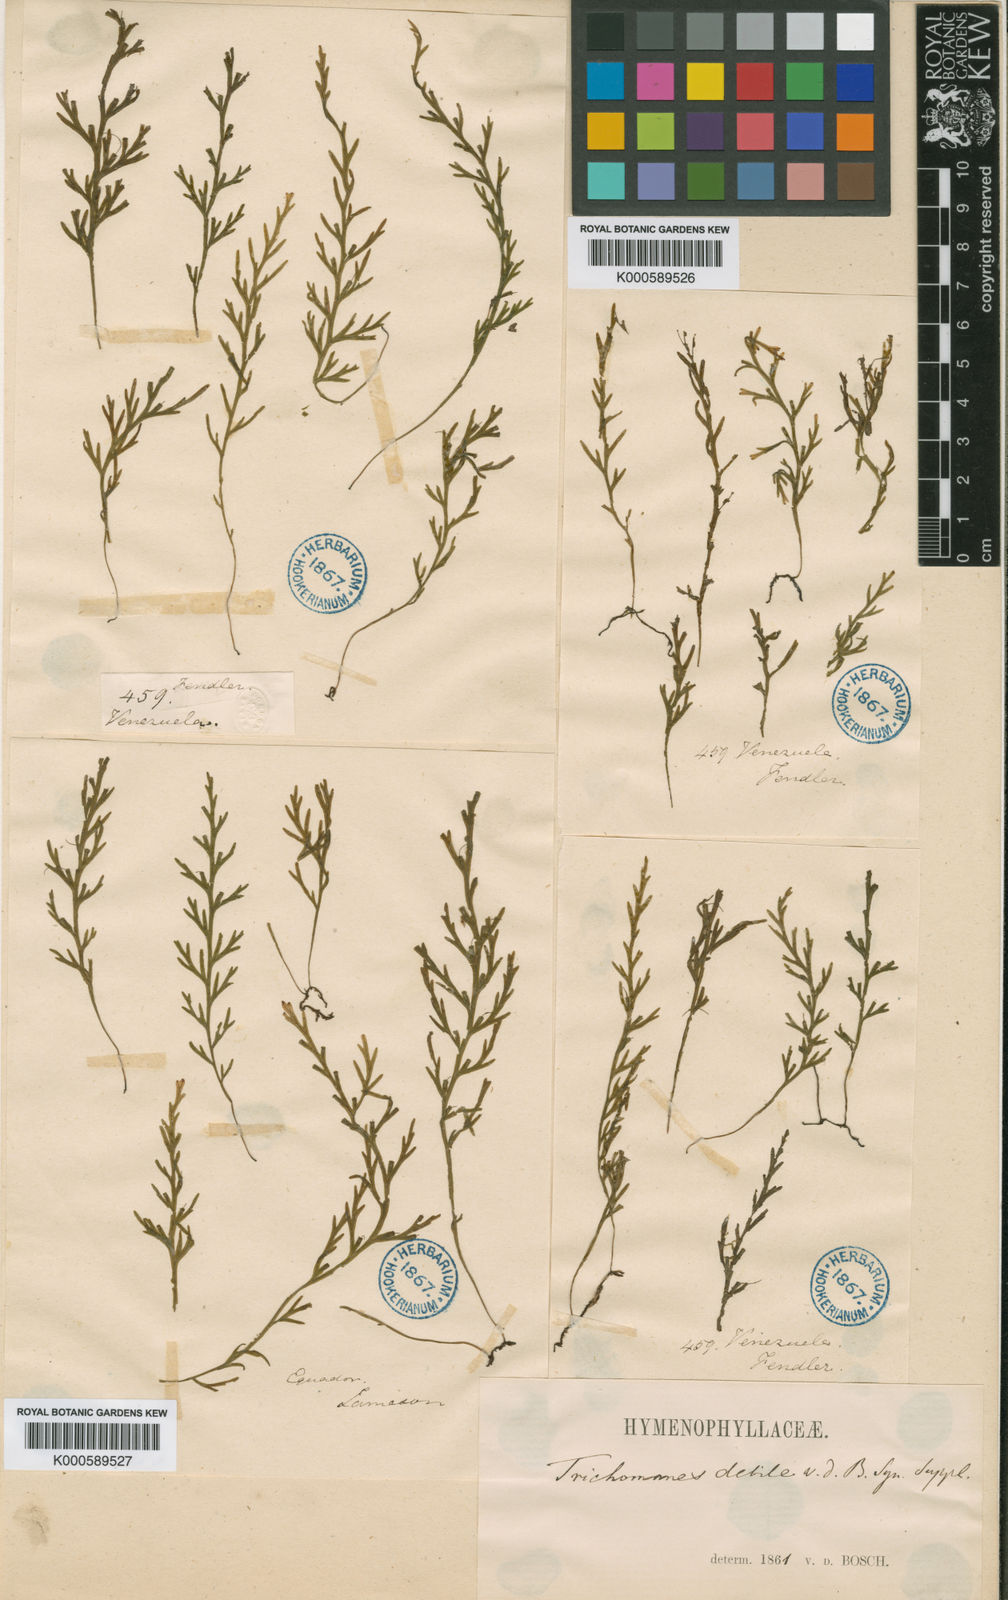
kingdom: Plantae
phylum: Tracheophyta
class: Polypodiopsida
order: Hymenophyllales
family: Hymenophyllaceae
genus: Polyphlebium
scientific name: Polyphlebium diaphanum
